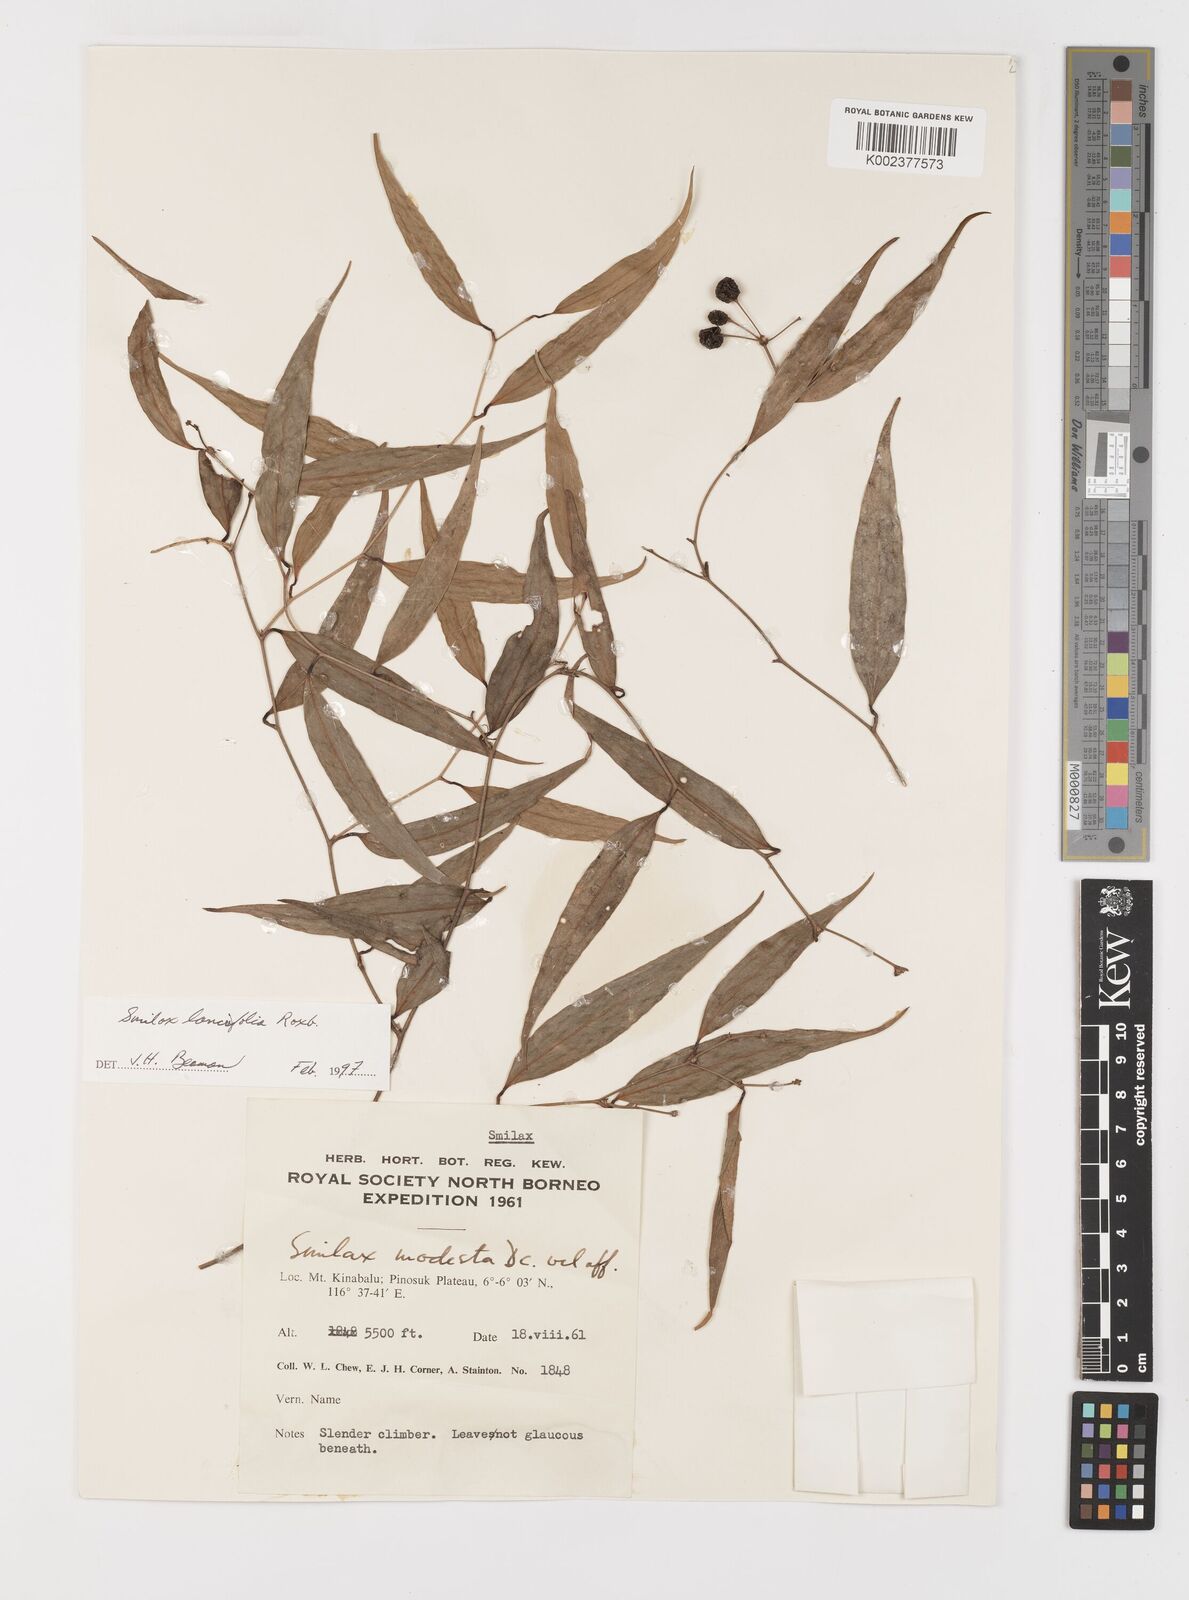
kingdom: Plantae
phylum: Tracheophyta
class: Liliopsida
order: Liliales
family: Smilacaceae
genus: Smilax
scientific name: Smilax lanceifolia
